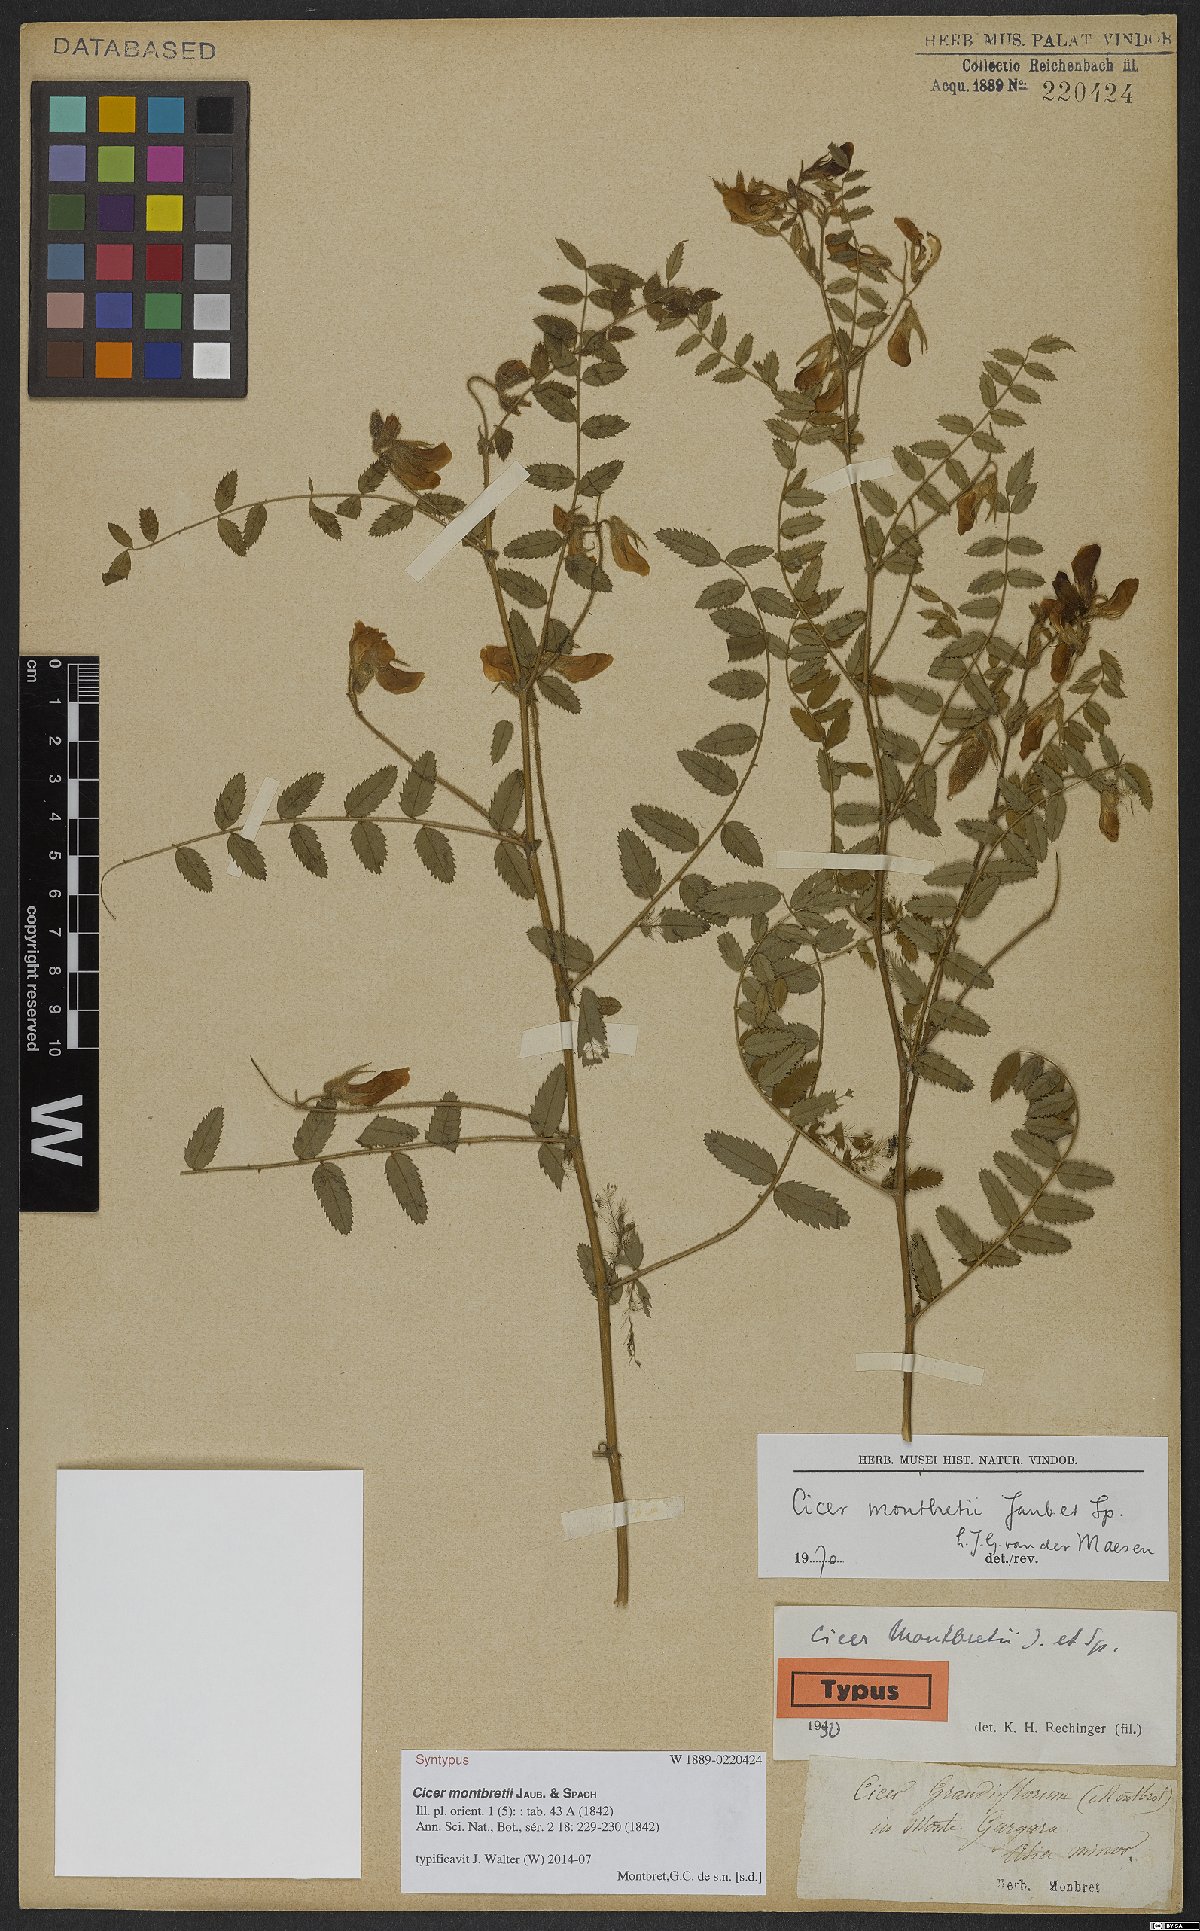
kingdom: Plantae
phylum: Tracheophyta
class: Magnoliopsida
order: Fabales
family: Fabaceae
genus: Cicer
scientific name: Cicer montbretii
